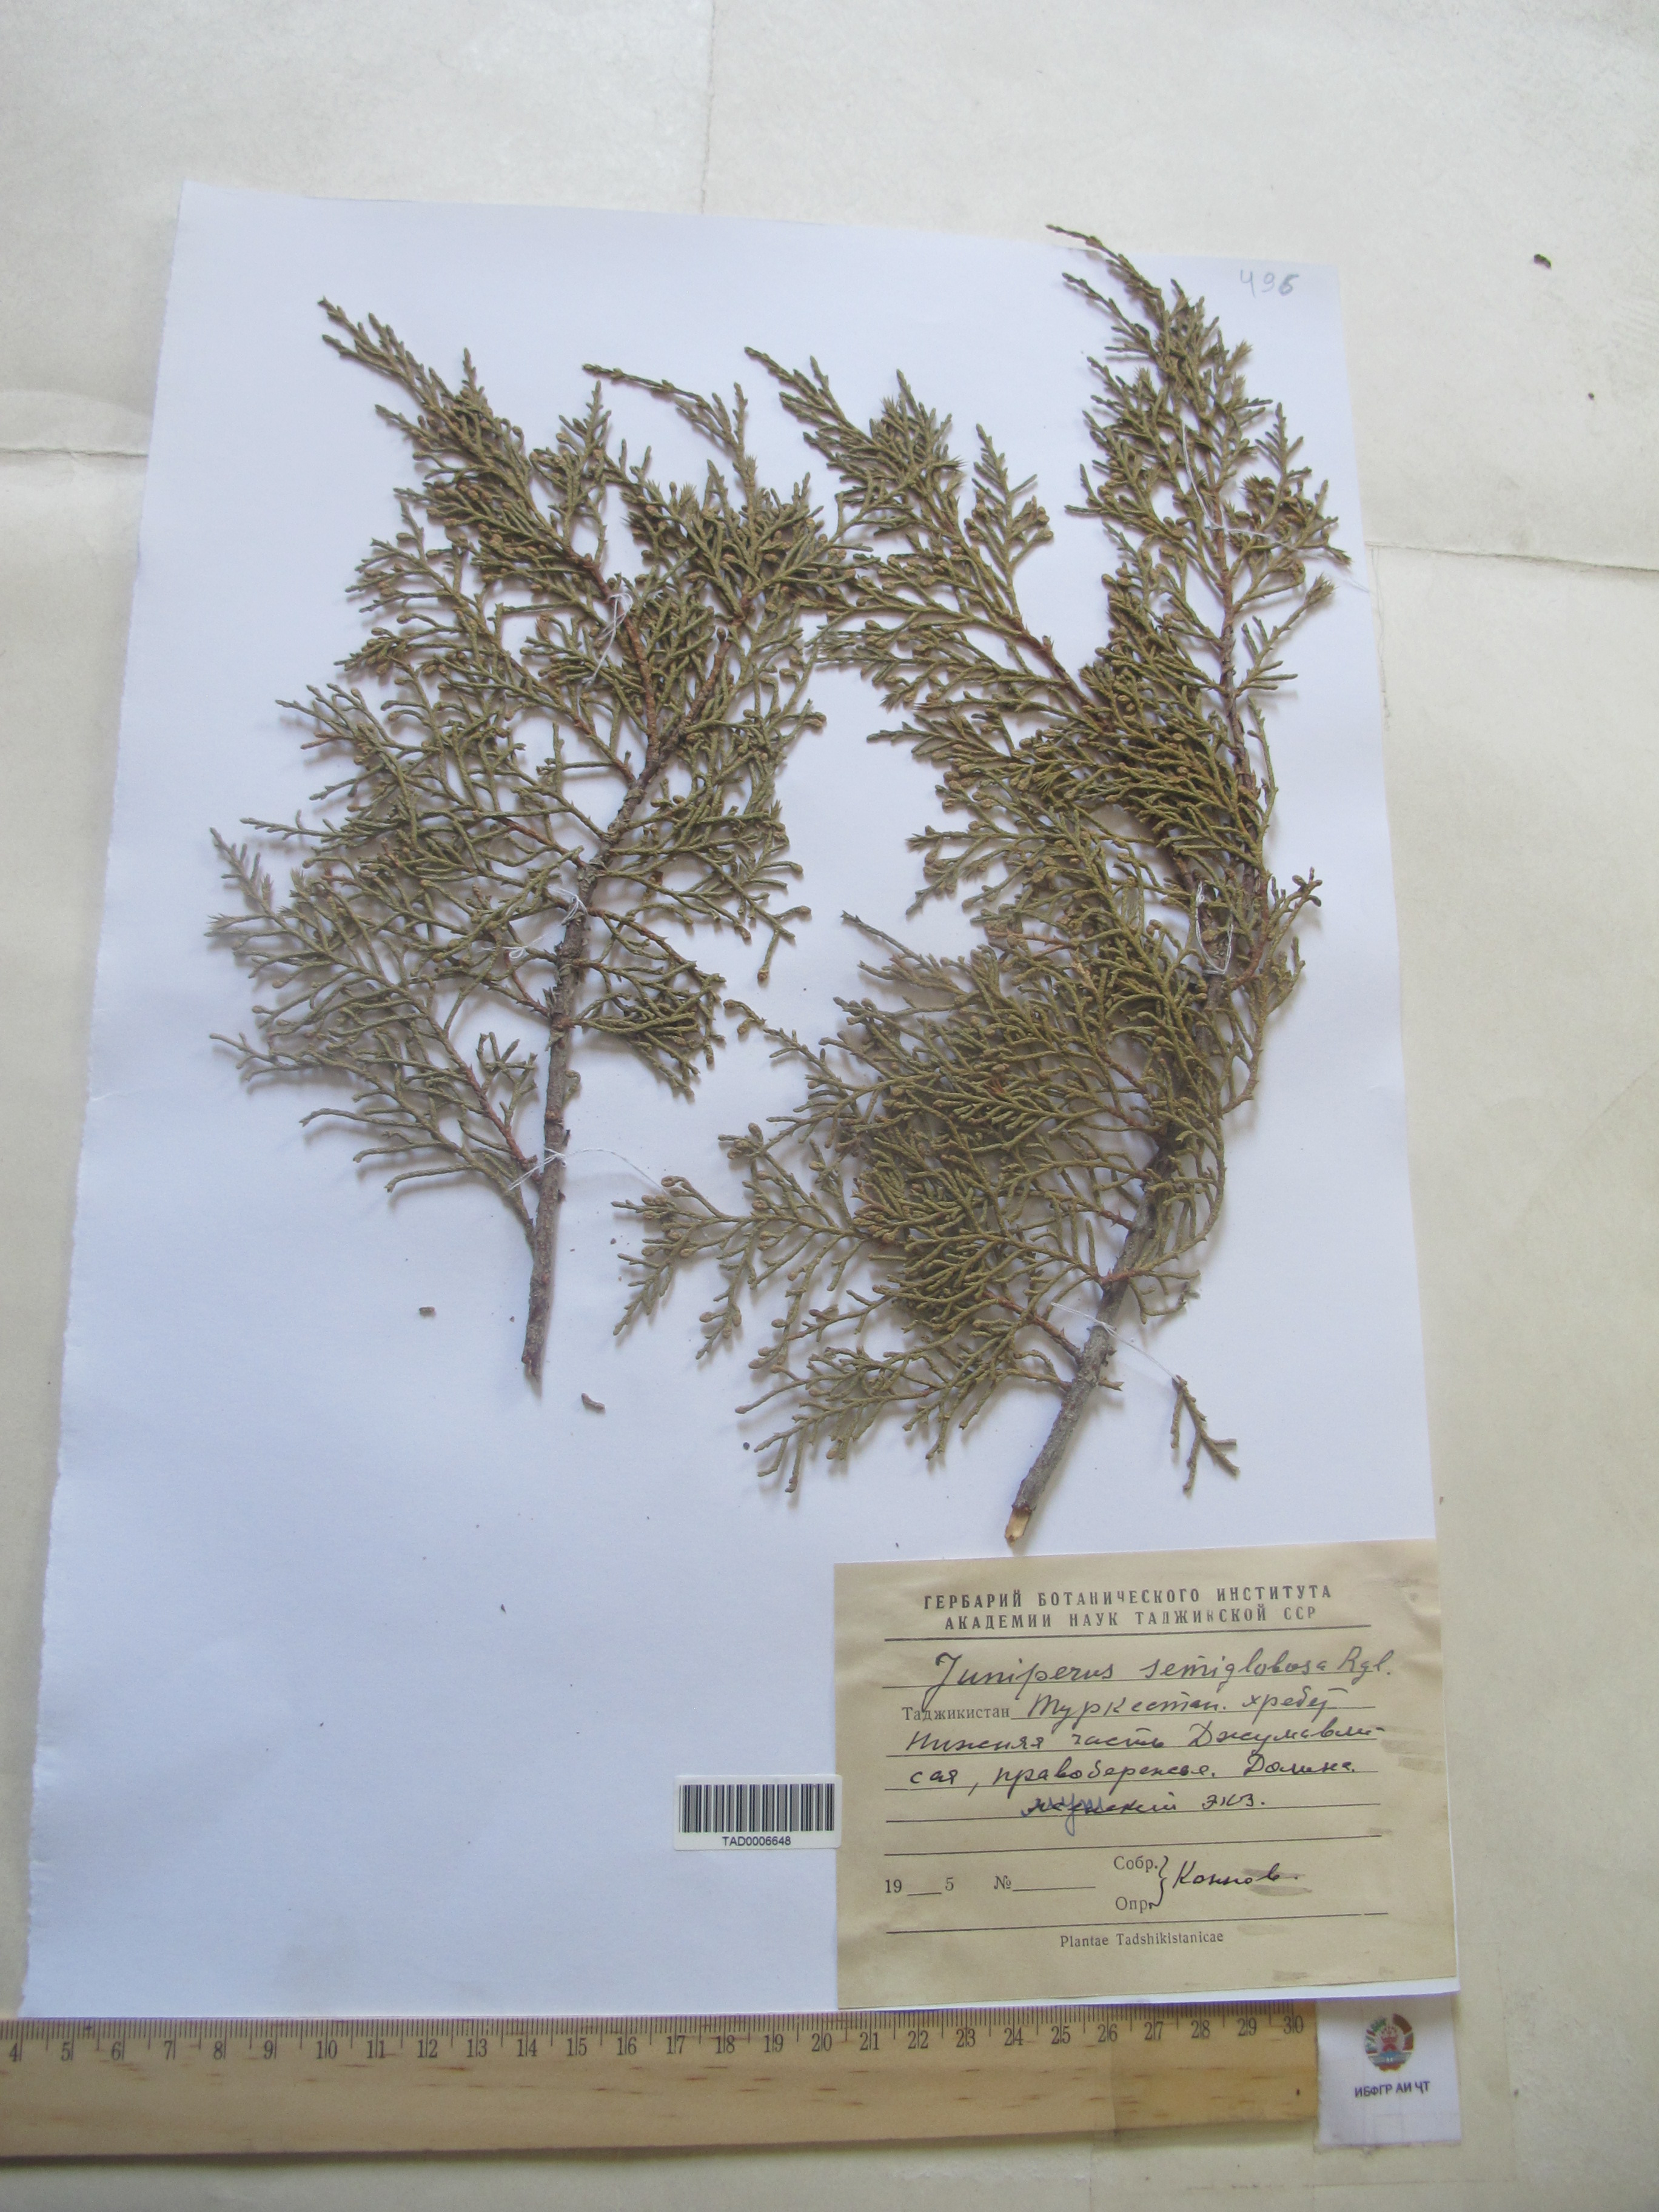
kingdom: Plantae
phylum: Tracheophyta
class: Pinopsida
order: Pinales
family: Cupressaceae
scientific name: Cupressaceae
